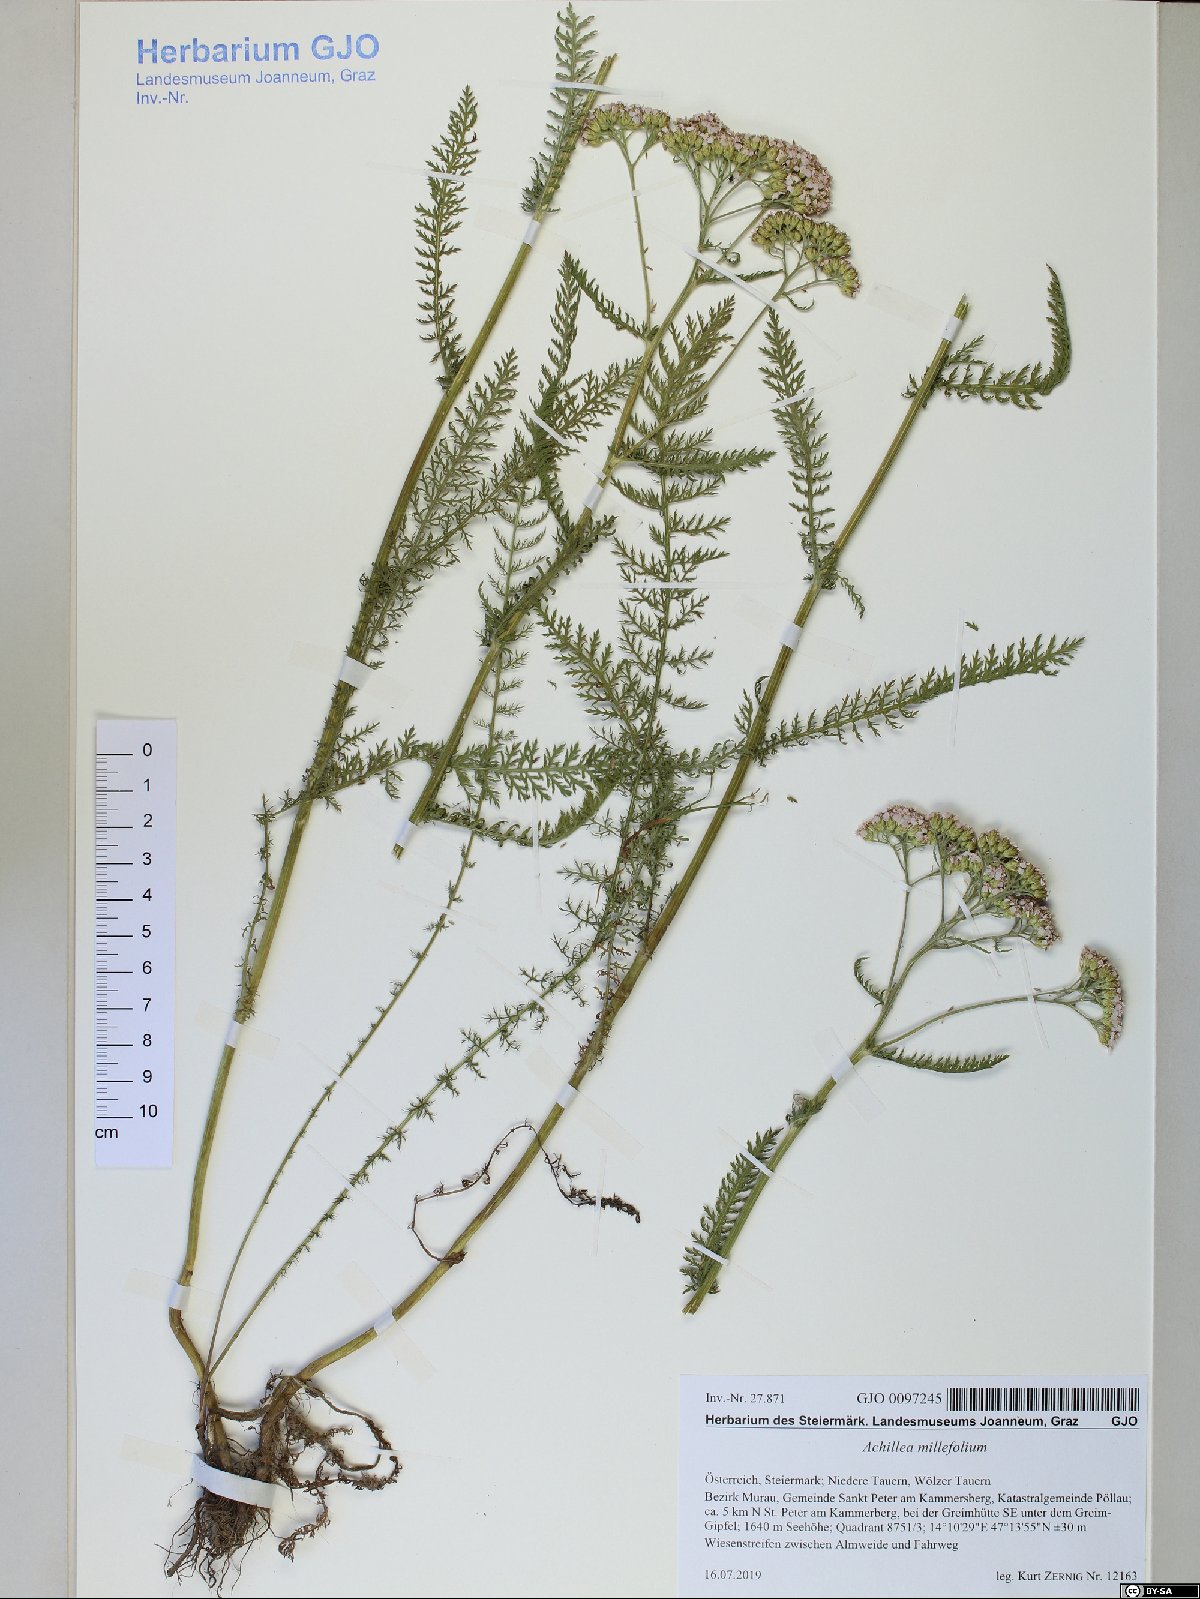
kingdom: Plantae
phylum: Tracheophyta
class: Magnoliopsida
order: Asterales
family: Asteraceae
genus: Achillea
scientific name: Achillea millefolium
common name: Yarrow
